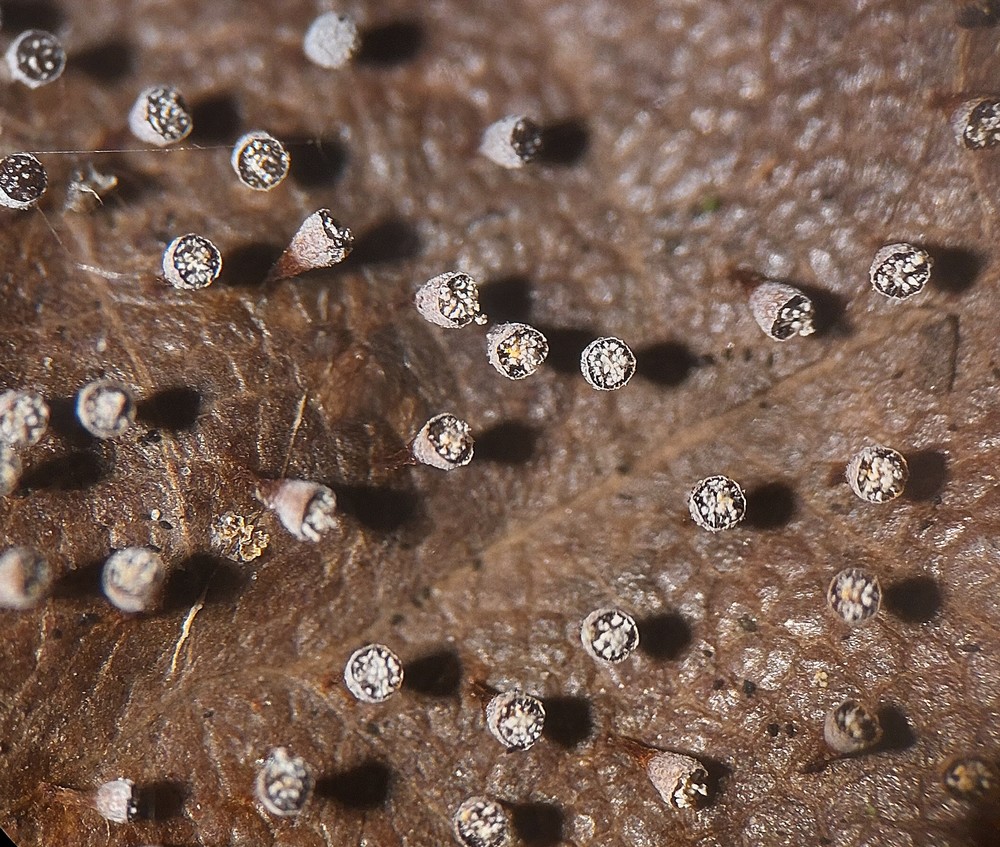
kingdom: Protozoa
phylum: Mycetozoa
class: Myxomycetes
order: Physarales
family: Physaraceae
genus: Craterium
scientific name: Craterium leucocephalum
